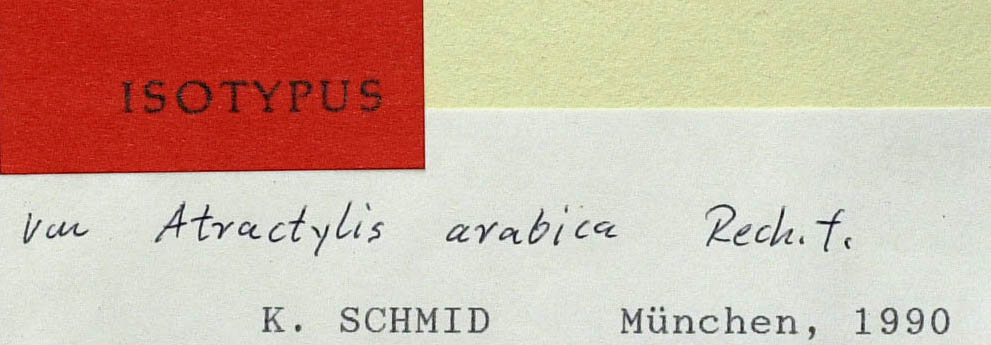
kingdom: Plantae
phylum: Tracheophyta
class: Magnoliopsida
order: Asterales
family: Asteraceae
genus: Atractylis
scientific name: Atractylis mernephtae
